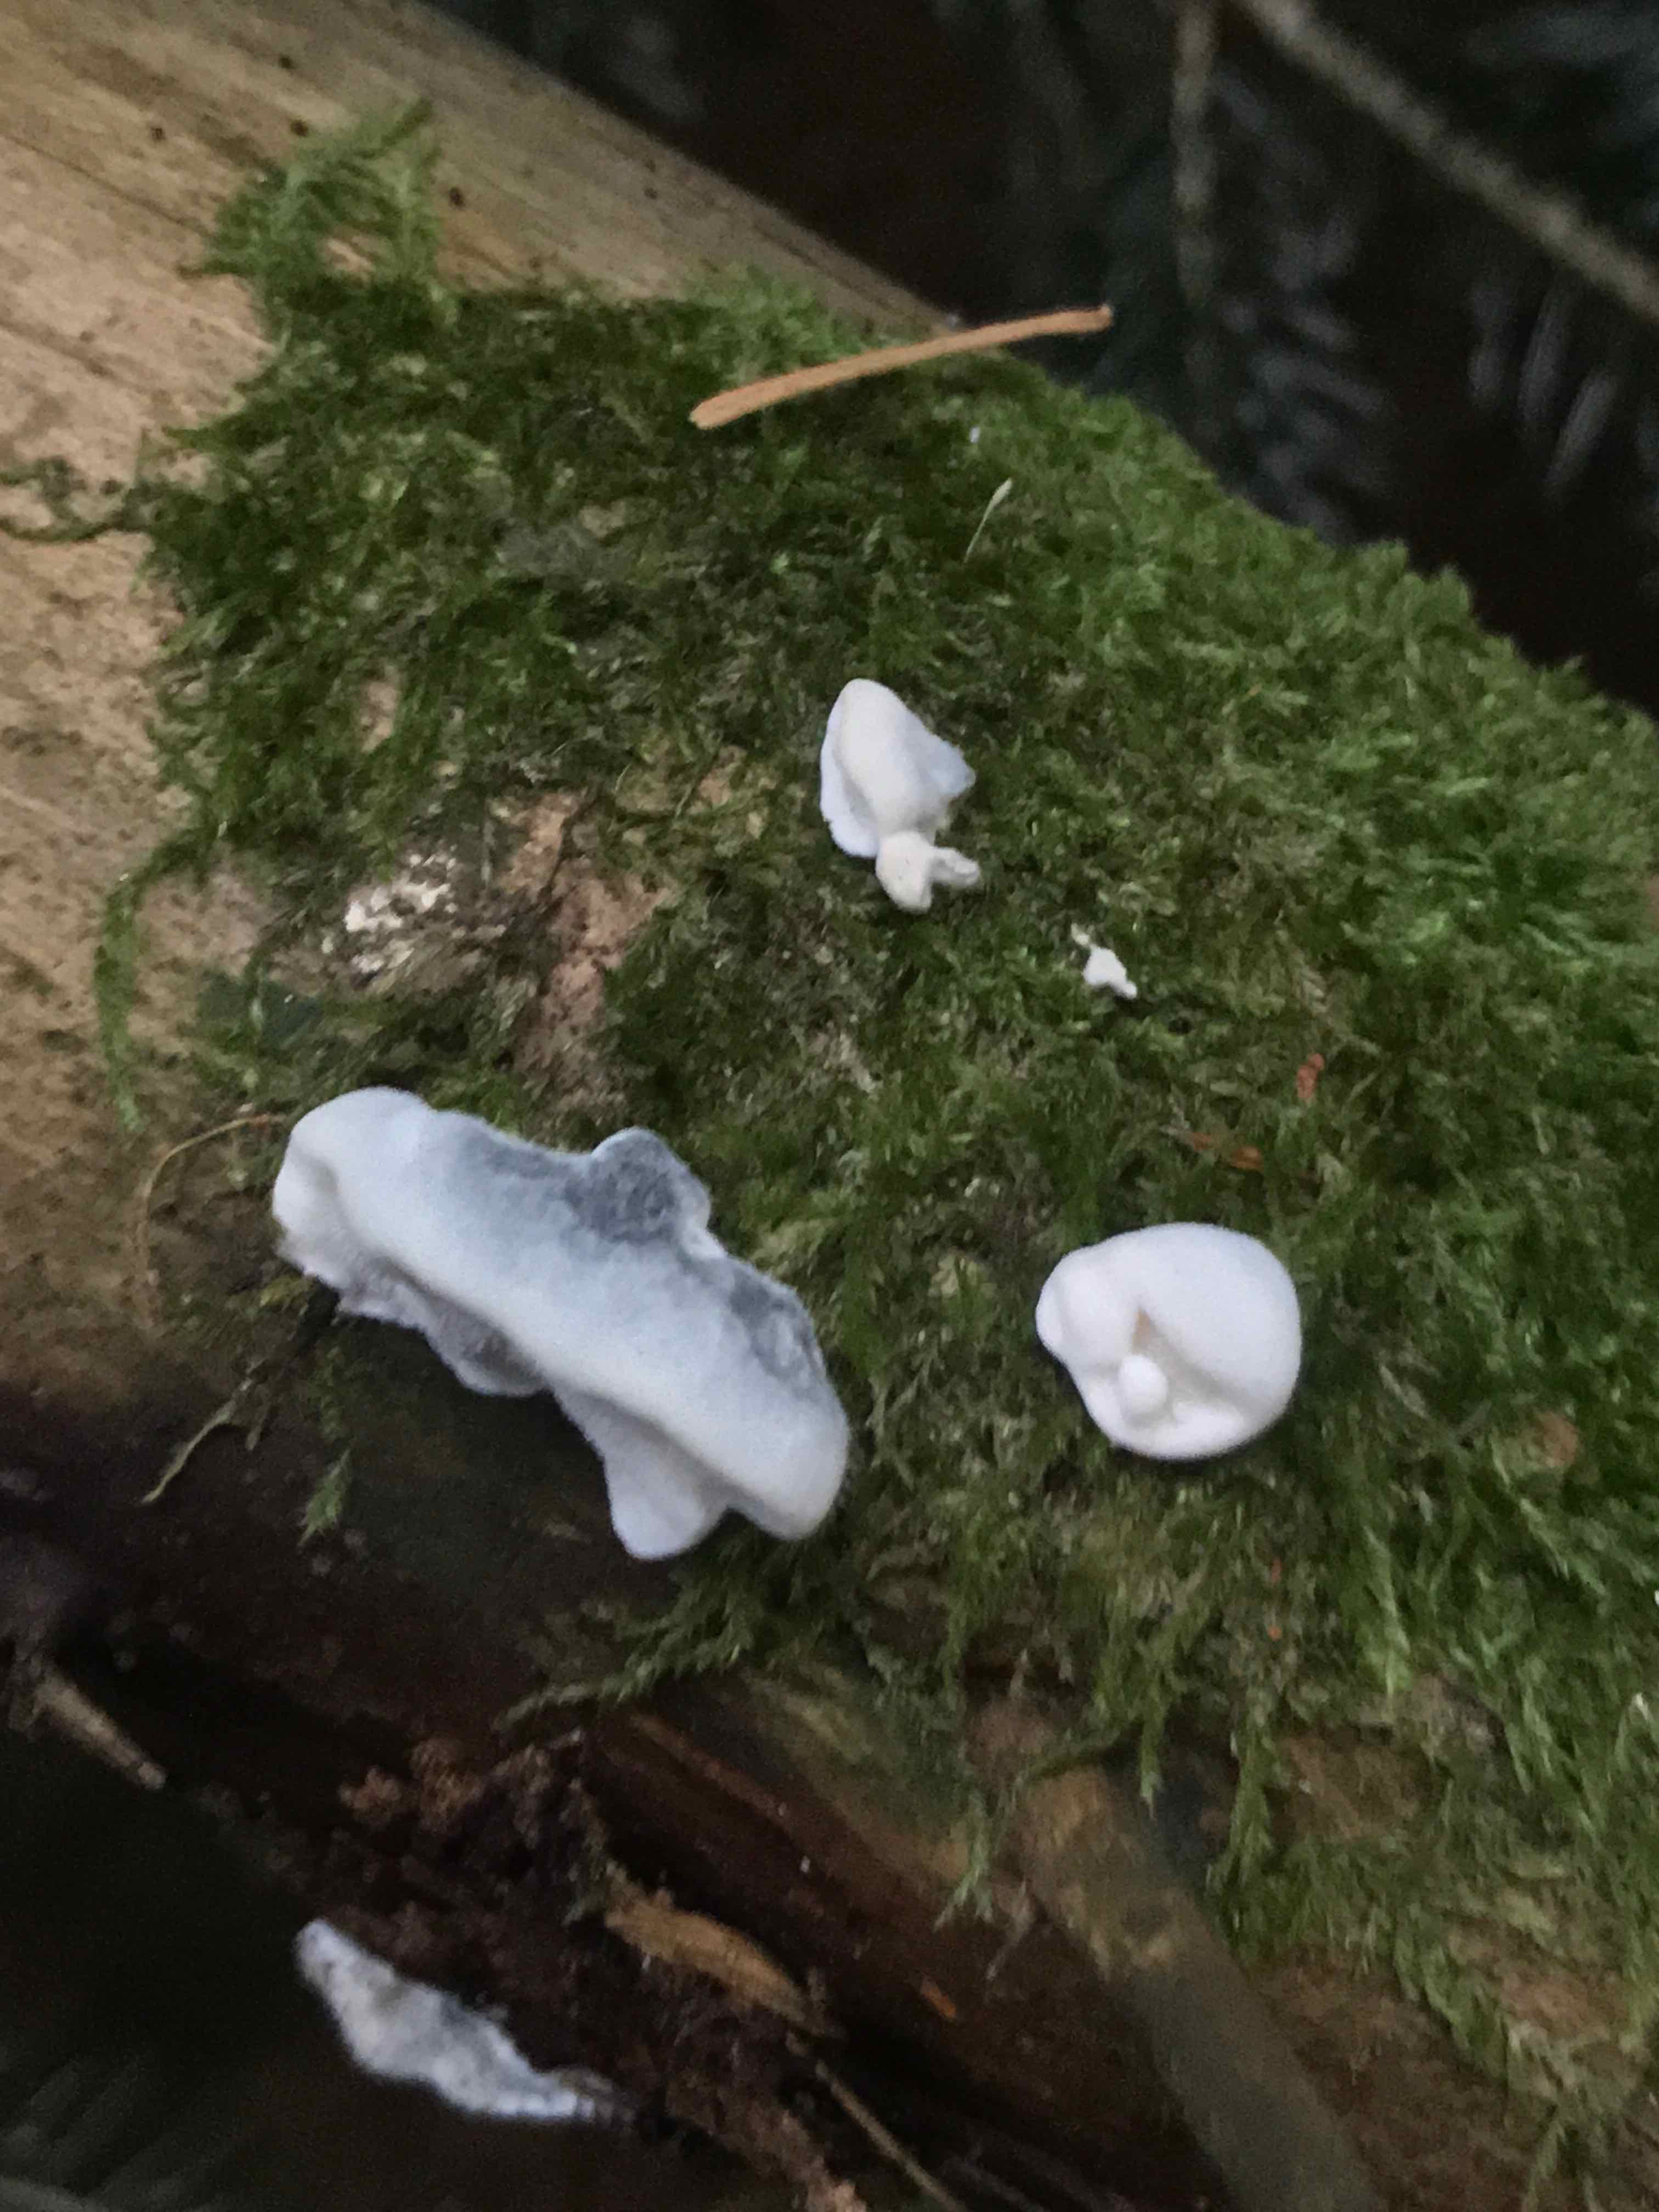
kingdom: Fungi
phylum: Basidiomycota
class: Agaricomycetes
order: Polyporales
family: Polyporaceae
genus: Cyanosporus
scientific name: Cyanosporus caesius
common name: blålig kødporesvamp
